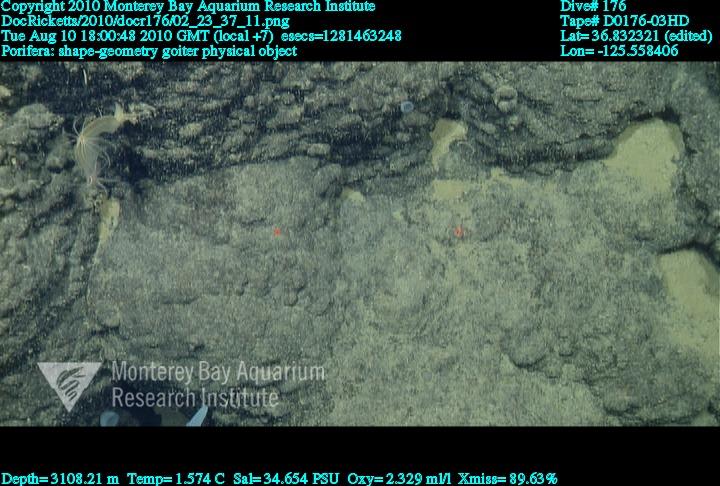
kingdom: Animalia
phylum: Porifera
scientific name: Porifera
